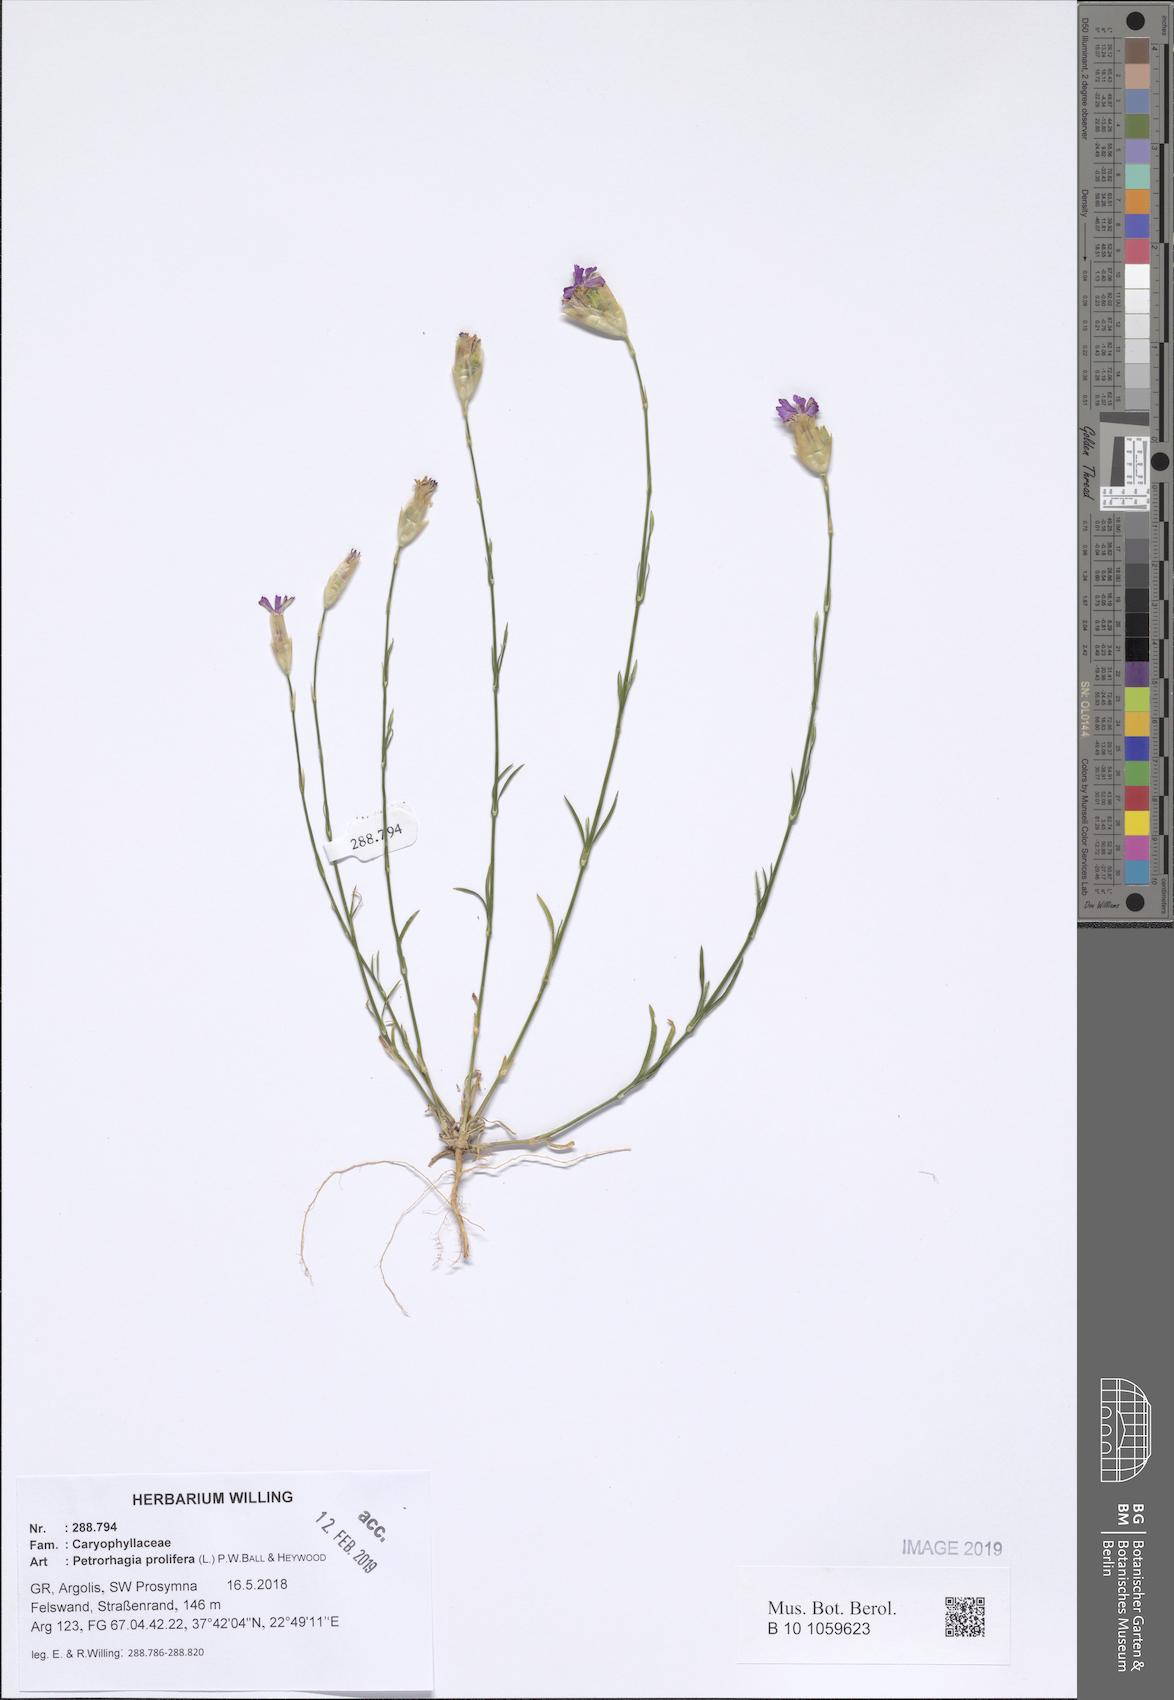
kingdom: Plantae
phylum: Tracheophyta
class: Magnoliopsida
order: Caryophyllales
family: Caryophyllaceae
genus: Petrorhagia
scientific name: Petrorhagia prolifera
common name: Proliferous pink
